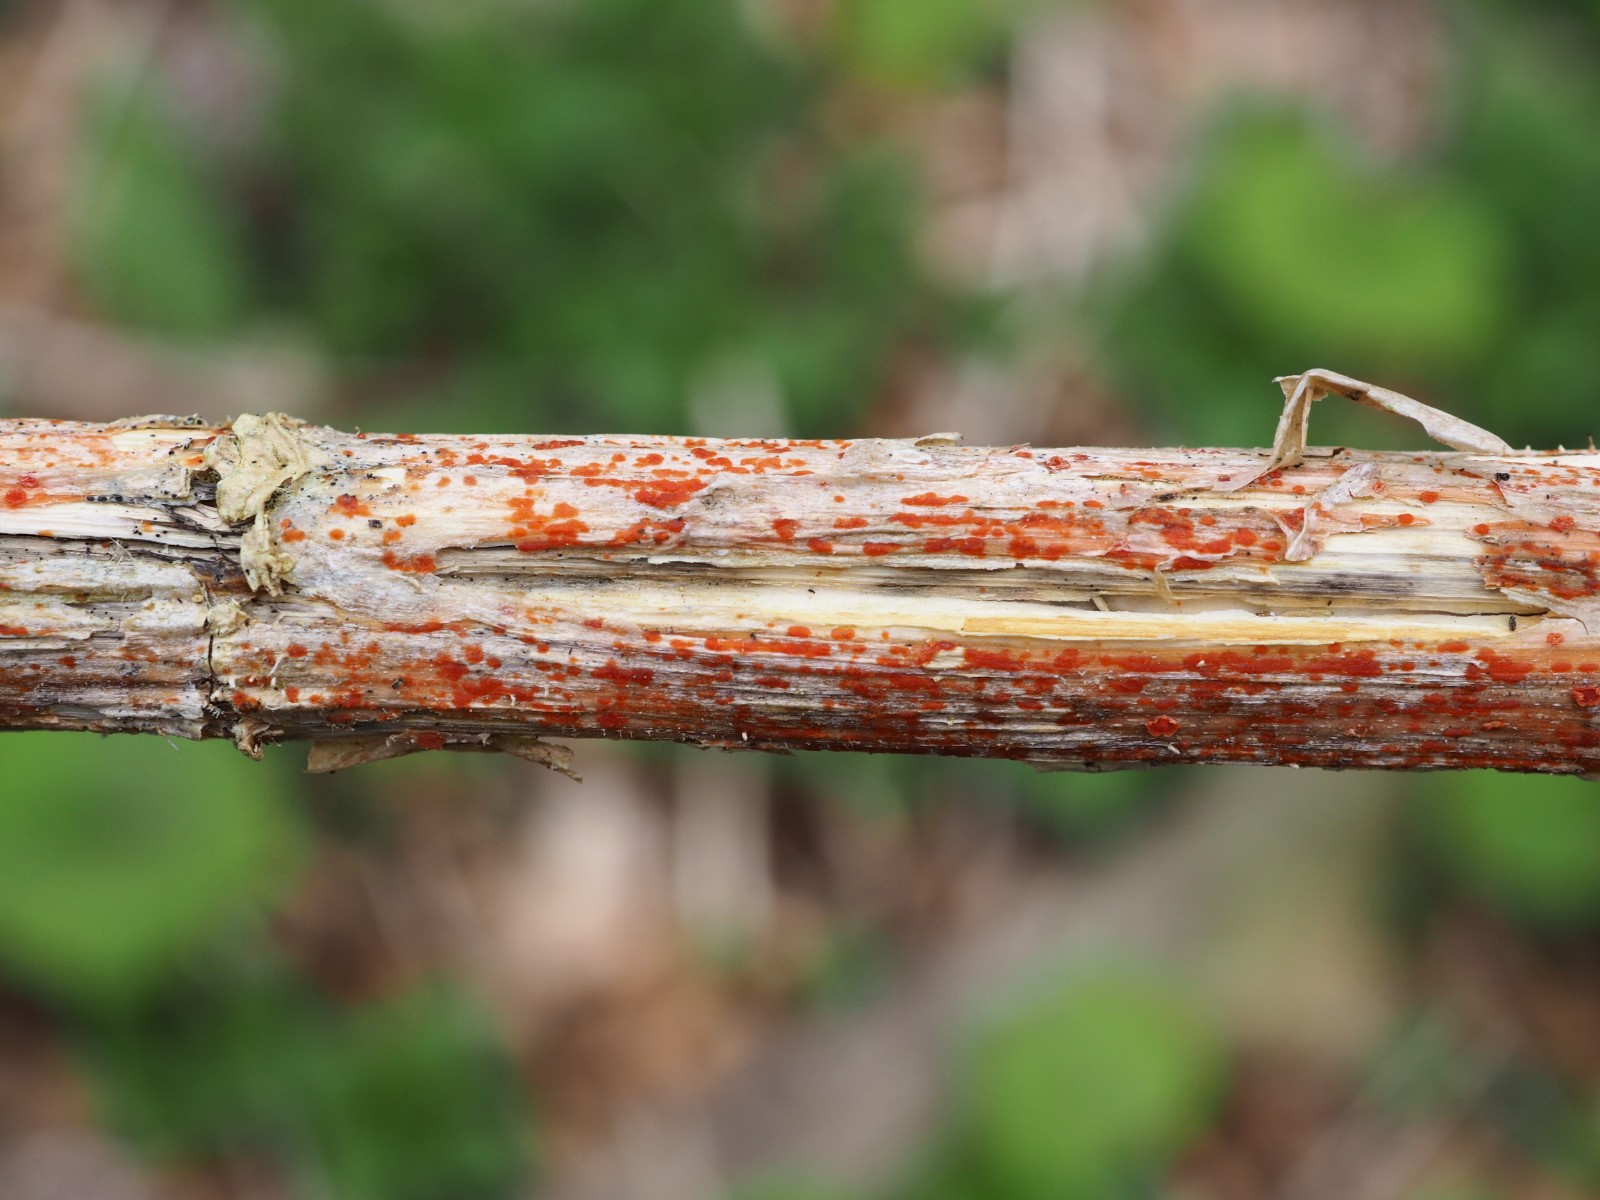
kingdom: Fungi
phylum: Ascomycota
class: Leotiomycetes
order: Helotiales
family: Calloriaceae
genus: Calloria
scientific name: Calloria urticae
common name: nælde-orangeskive
